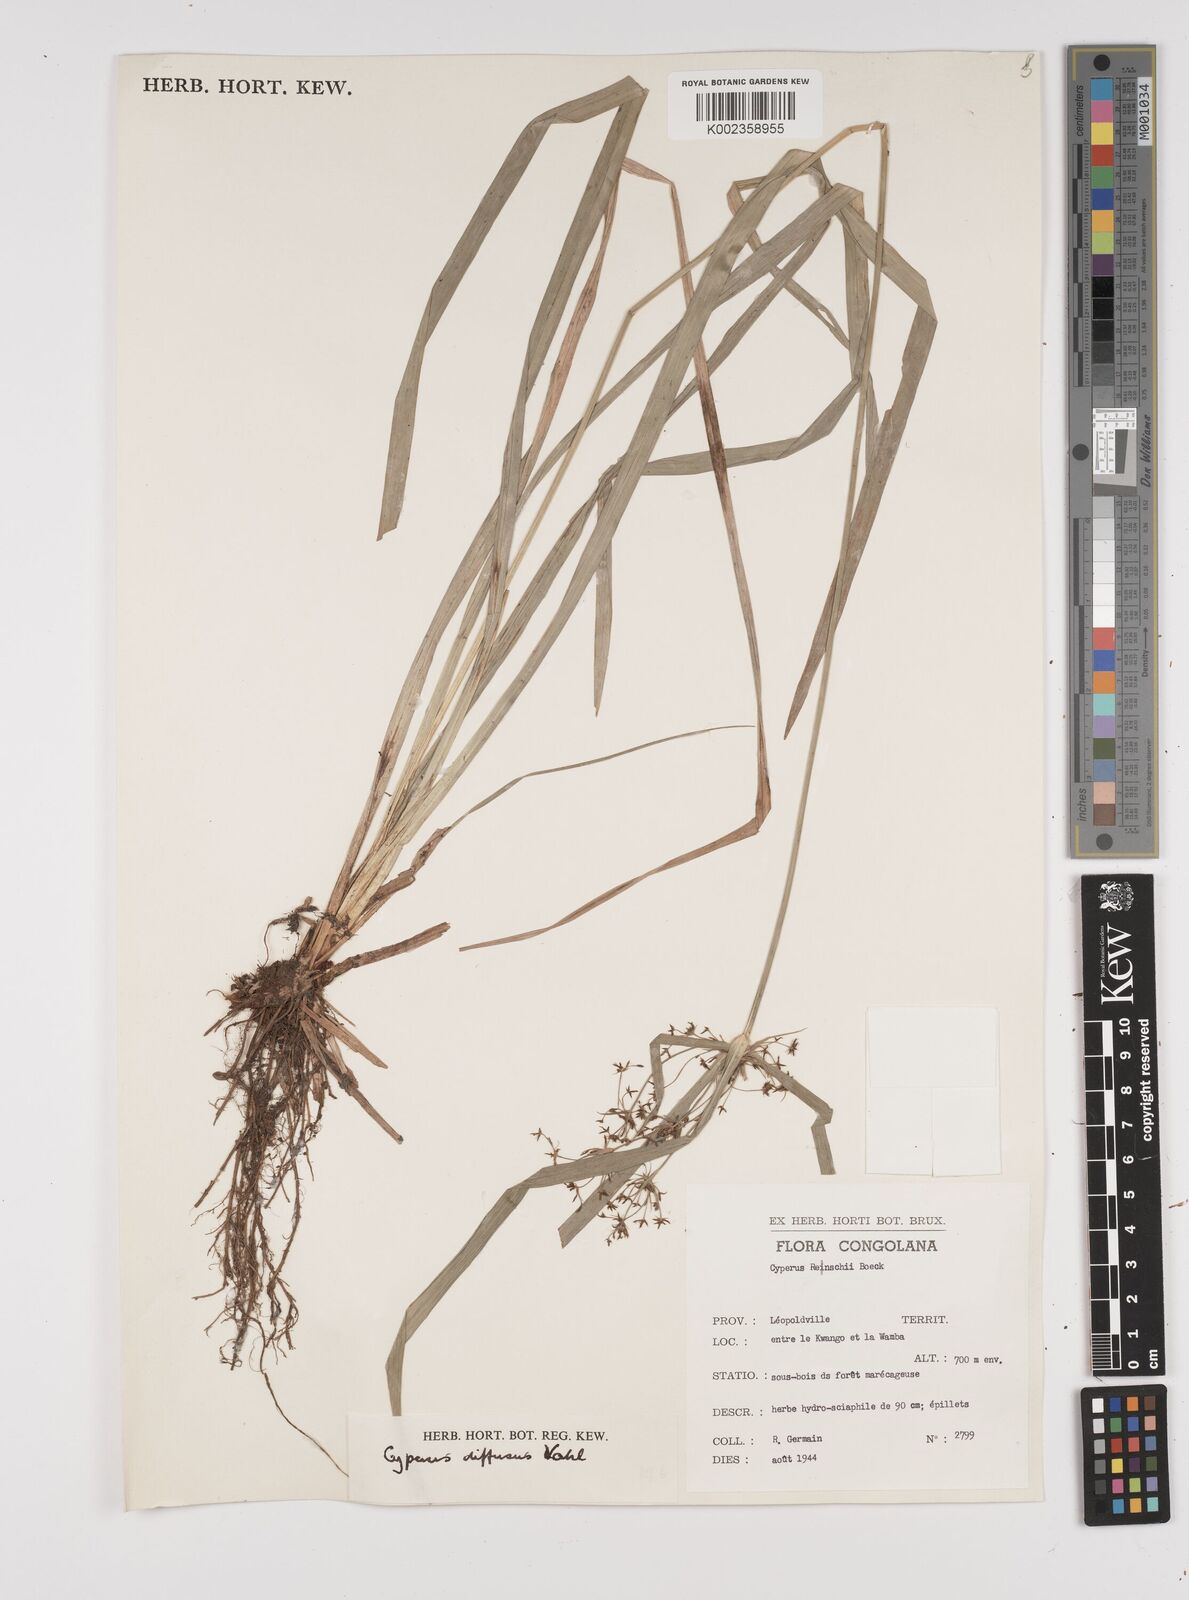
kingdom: Plantae
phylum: Tracheophyta
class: Liliopsida
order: Poales
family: Cyperaceae
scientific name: Cyperaceae
